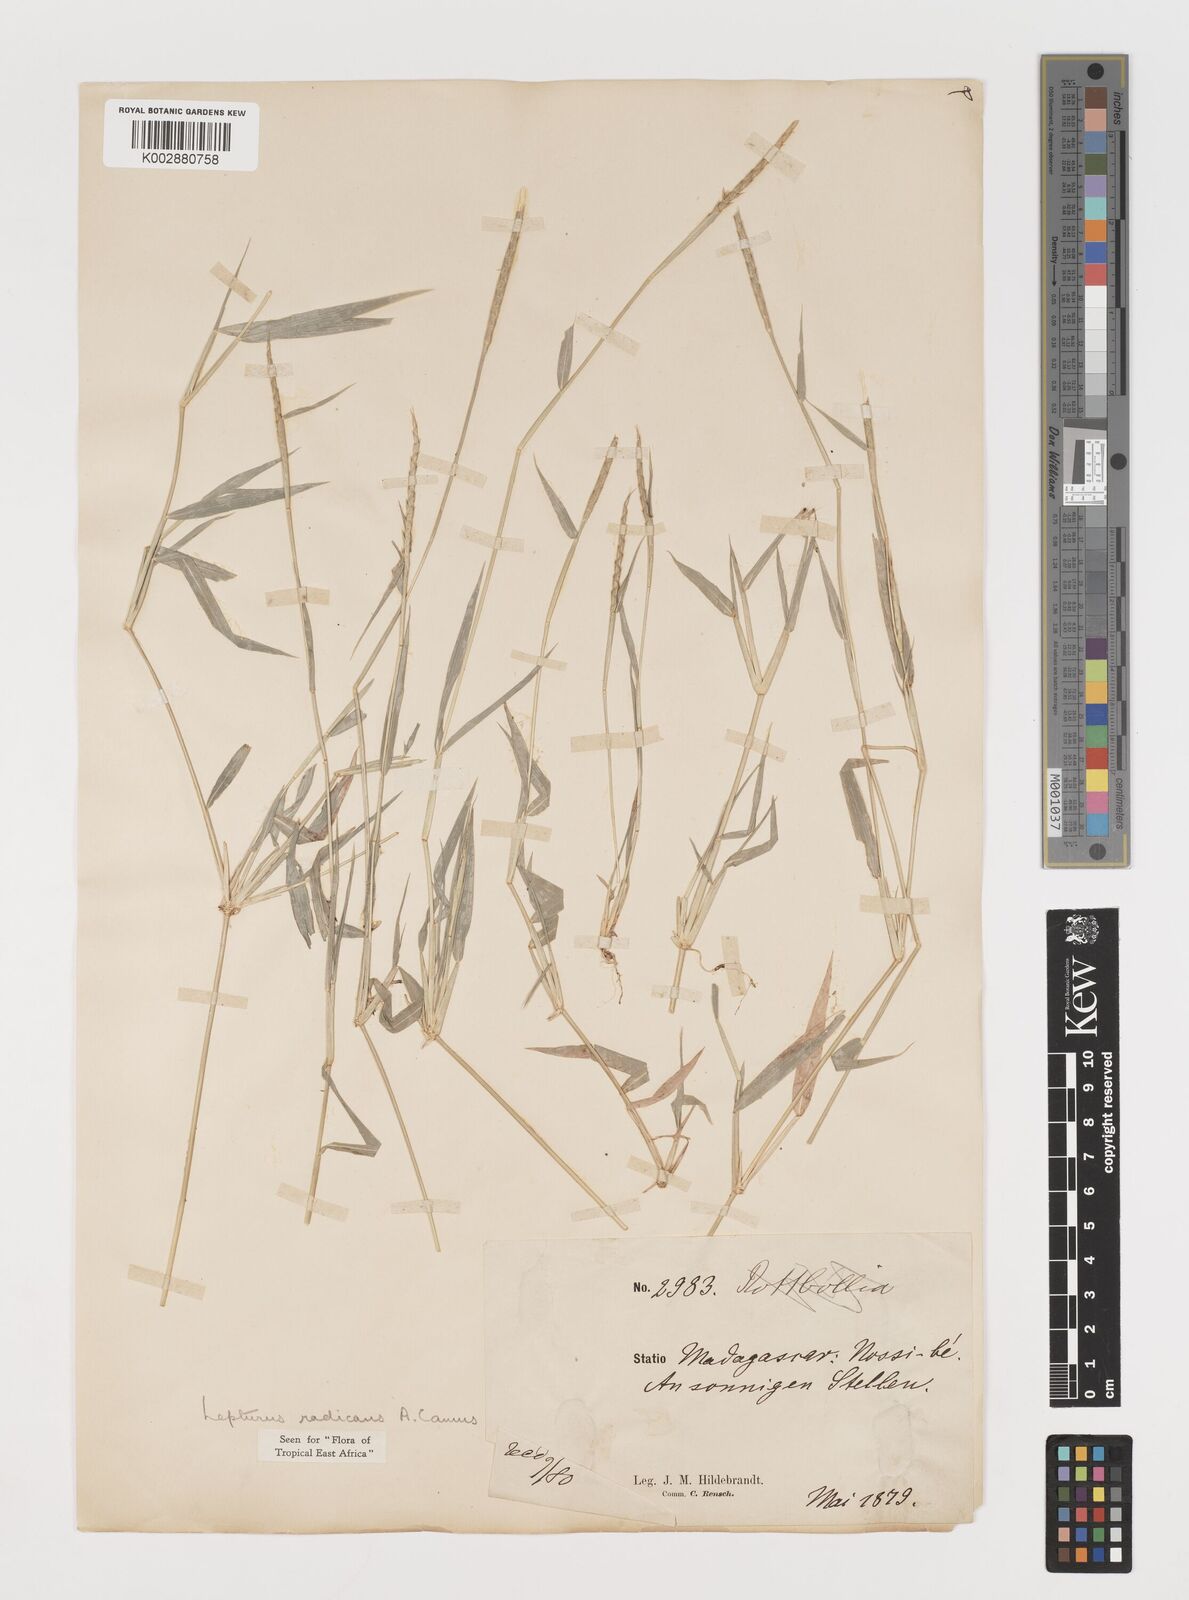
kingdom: Plantae
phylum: Tracheophyta
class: Liliopsida
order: Poales
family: Poaceae
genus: Lepturus
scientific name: Lepturus radicans
